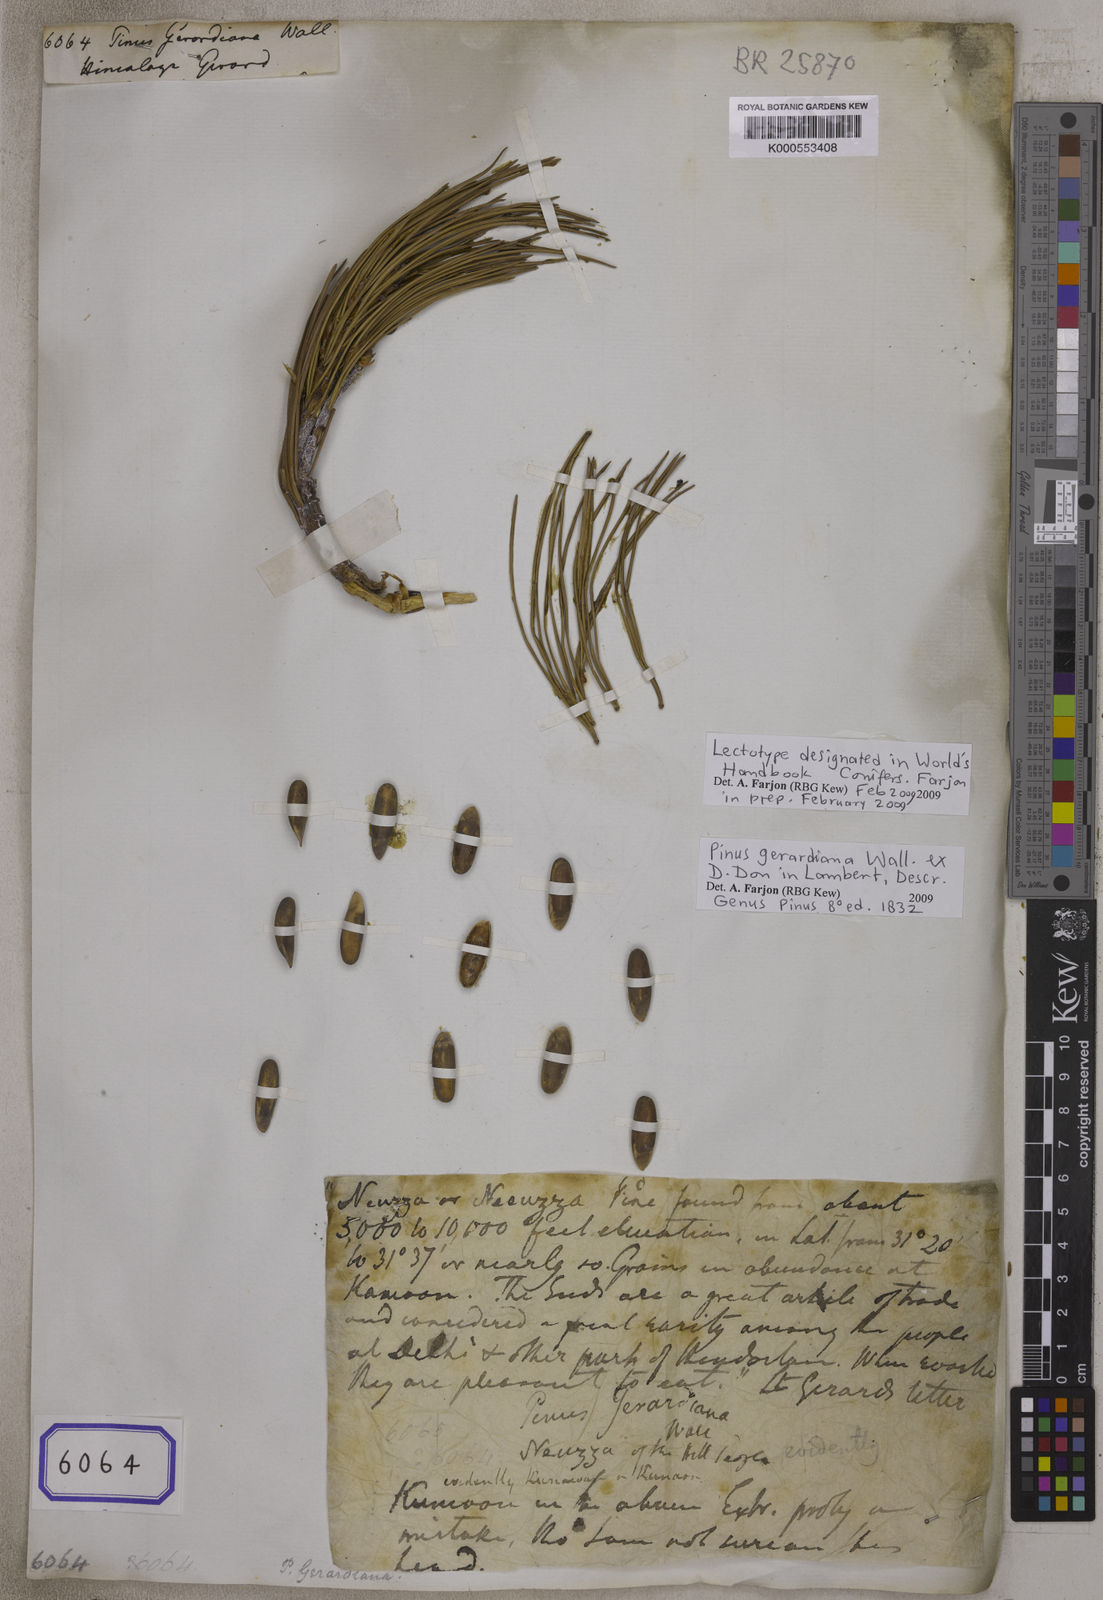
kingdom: Plantae
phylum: Tracheophyta
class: Pinopsida
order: Pinales
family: Pinaceae
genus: Pinus
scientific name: Pinus gerardiana
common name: Chilgoza pine
